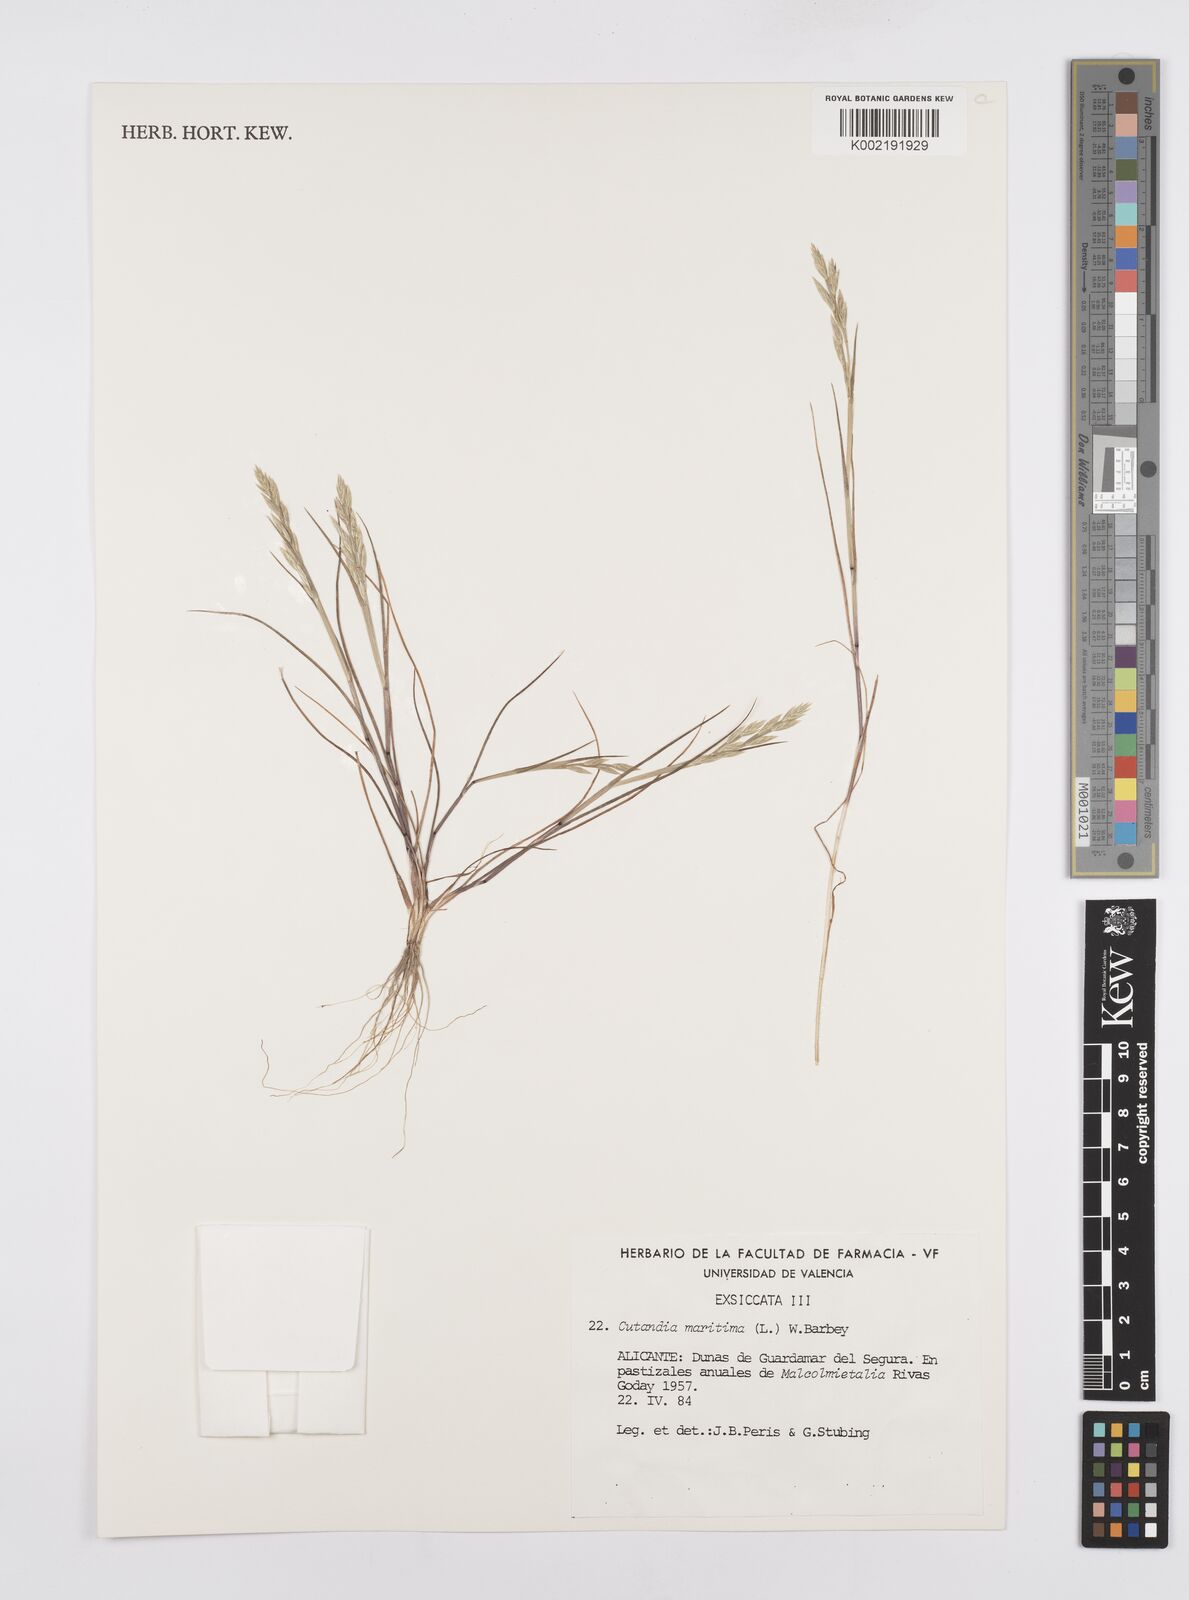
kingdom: Plantae
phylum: Tracheophyta
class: Liliopsida
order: Poales
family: Poaceae
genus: Cutandia
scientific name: Cutandia maritima
